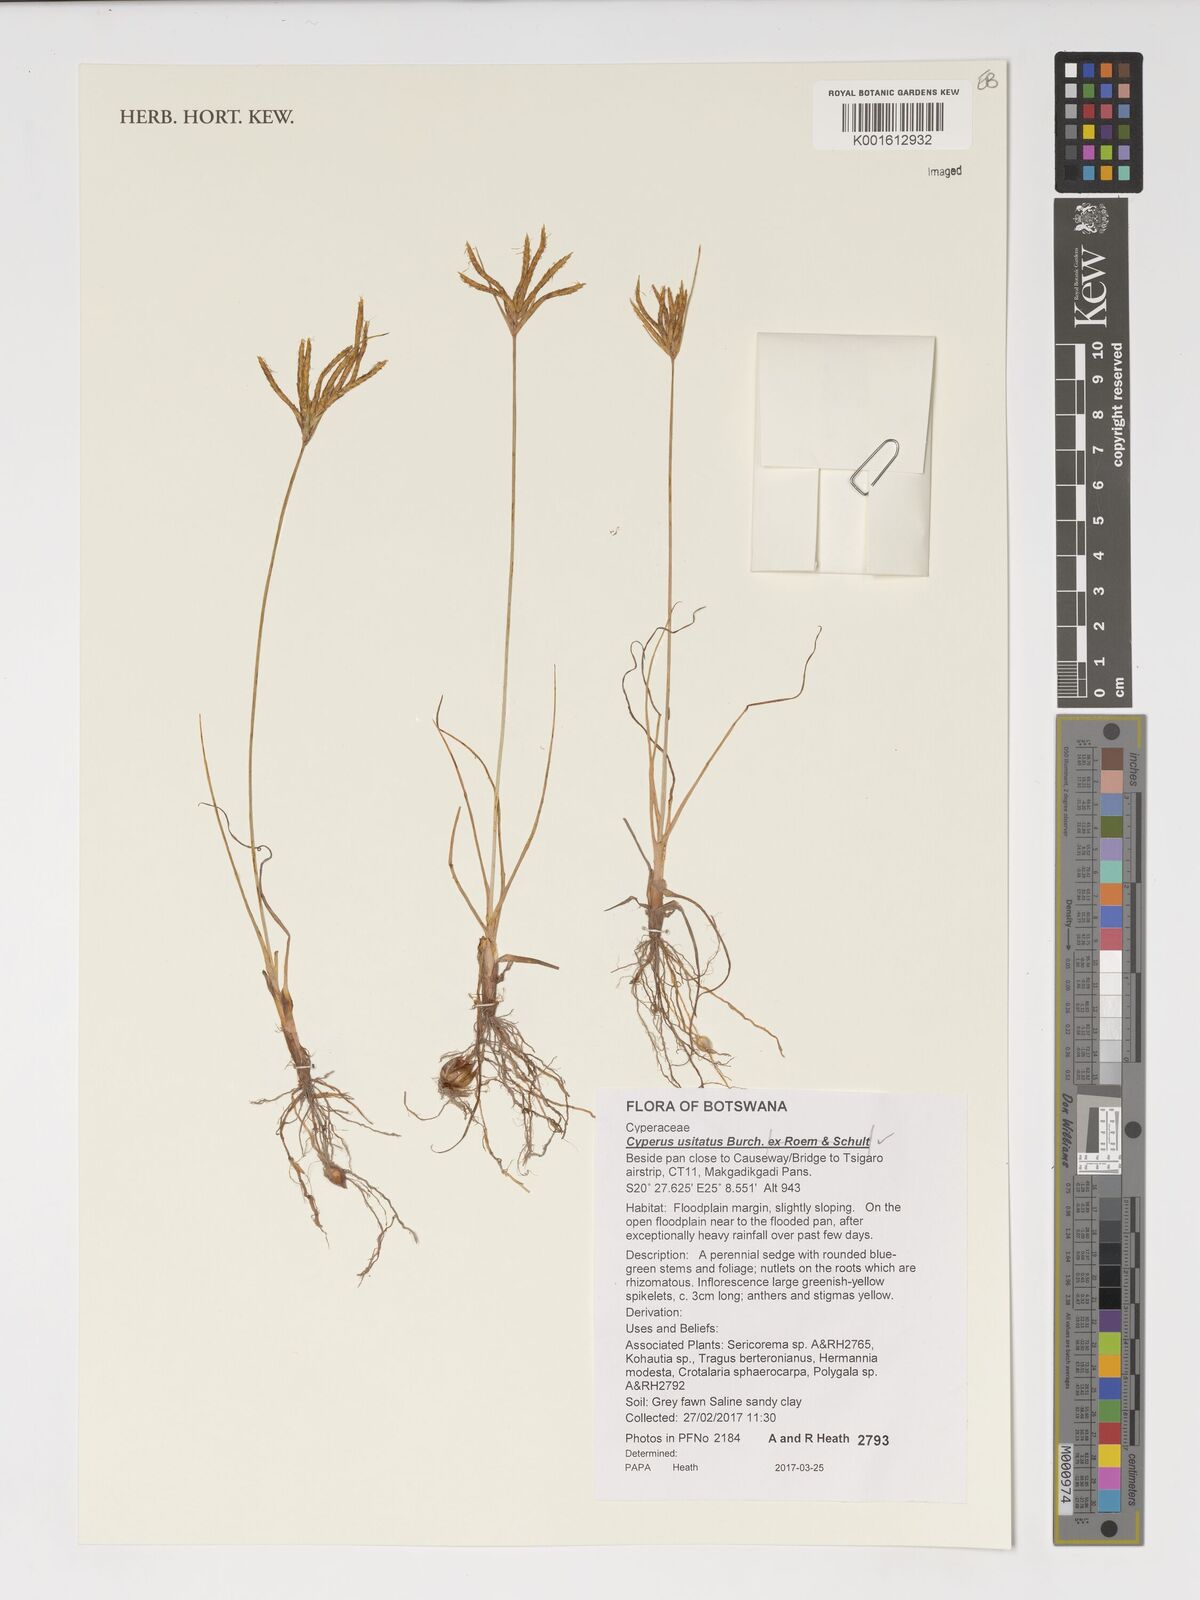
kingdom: Plantae
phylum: Tracheophyta
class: Liliopsida
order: Poales
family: Cyperaceae
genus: Cyperus
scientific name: Cyperus usitatus
